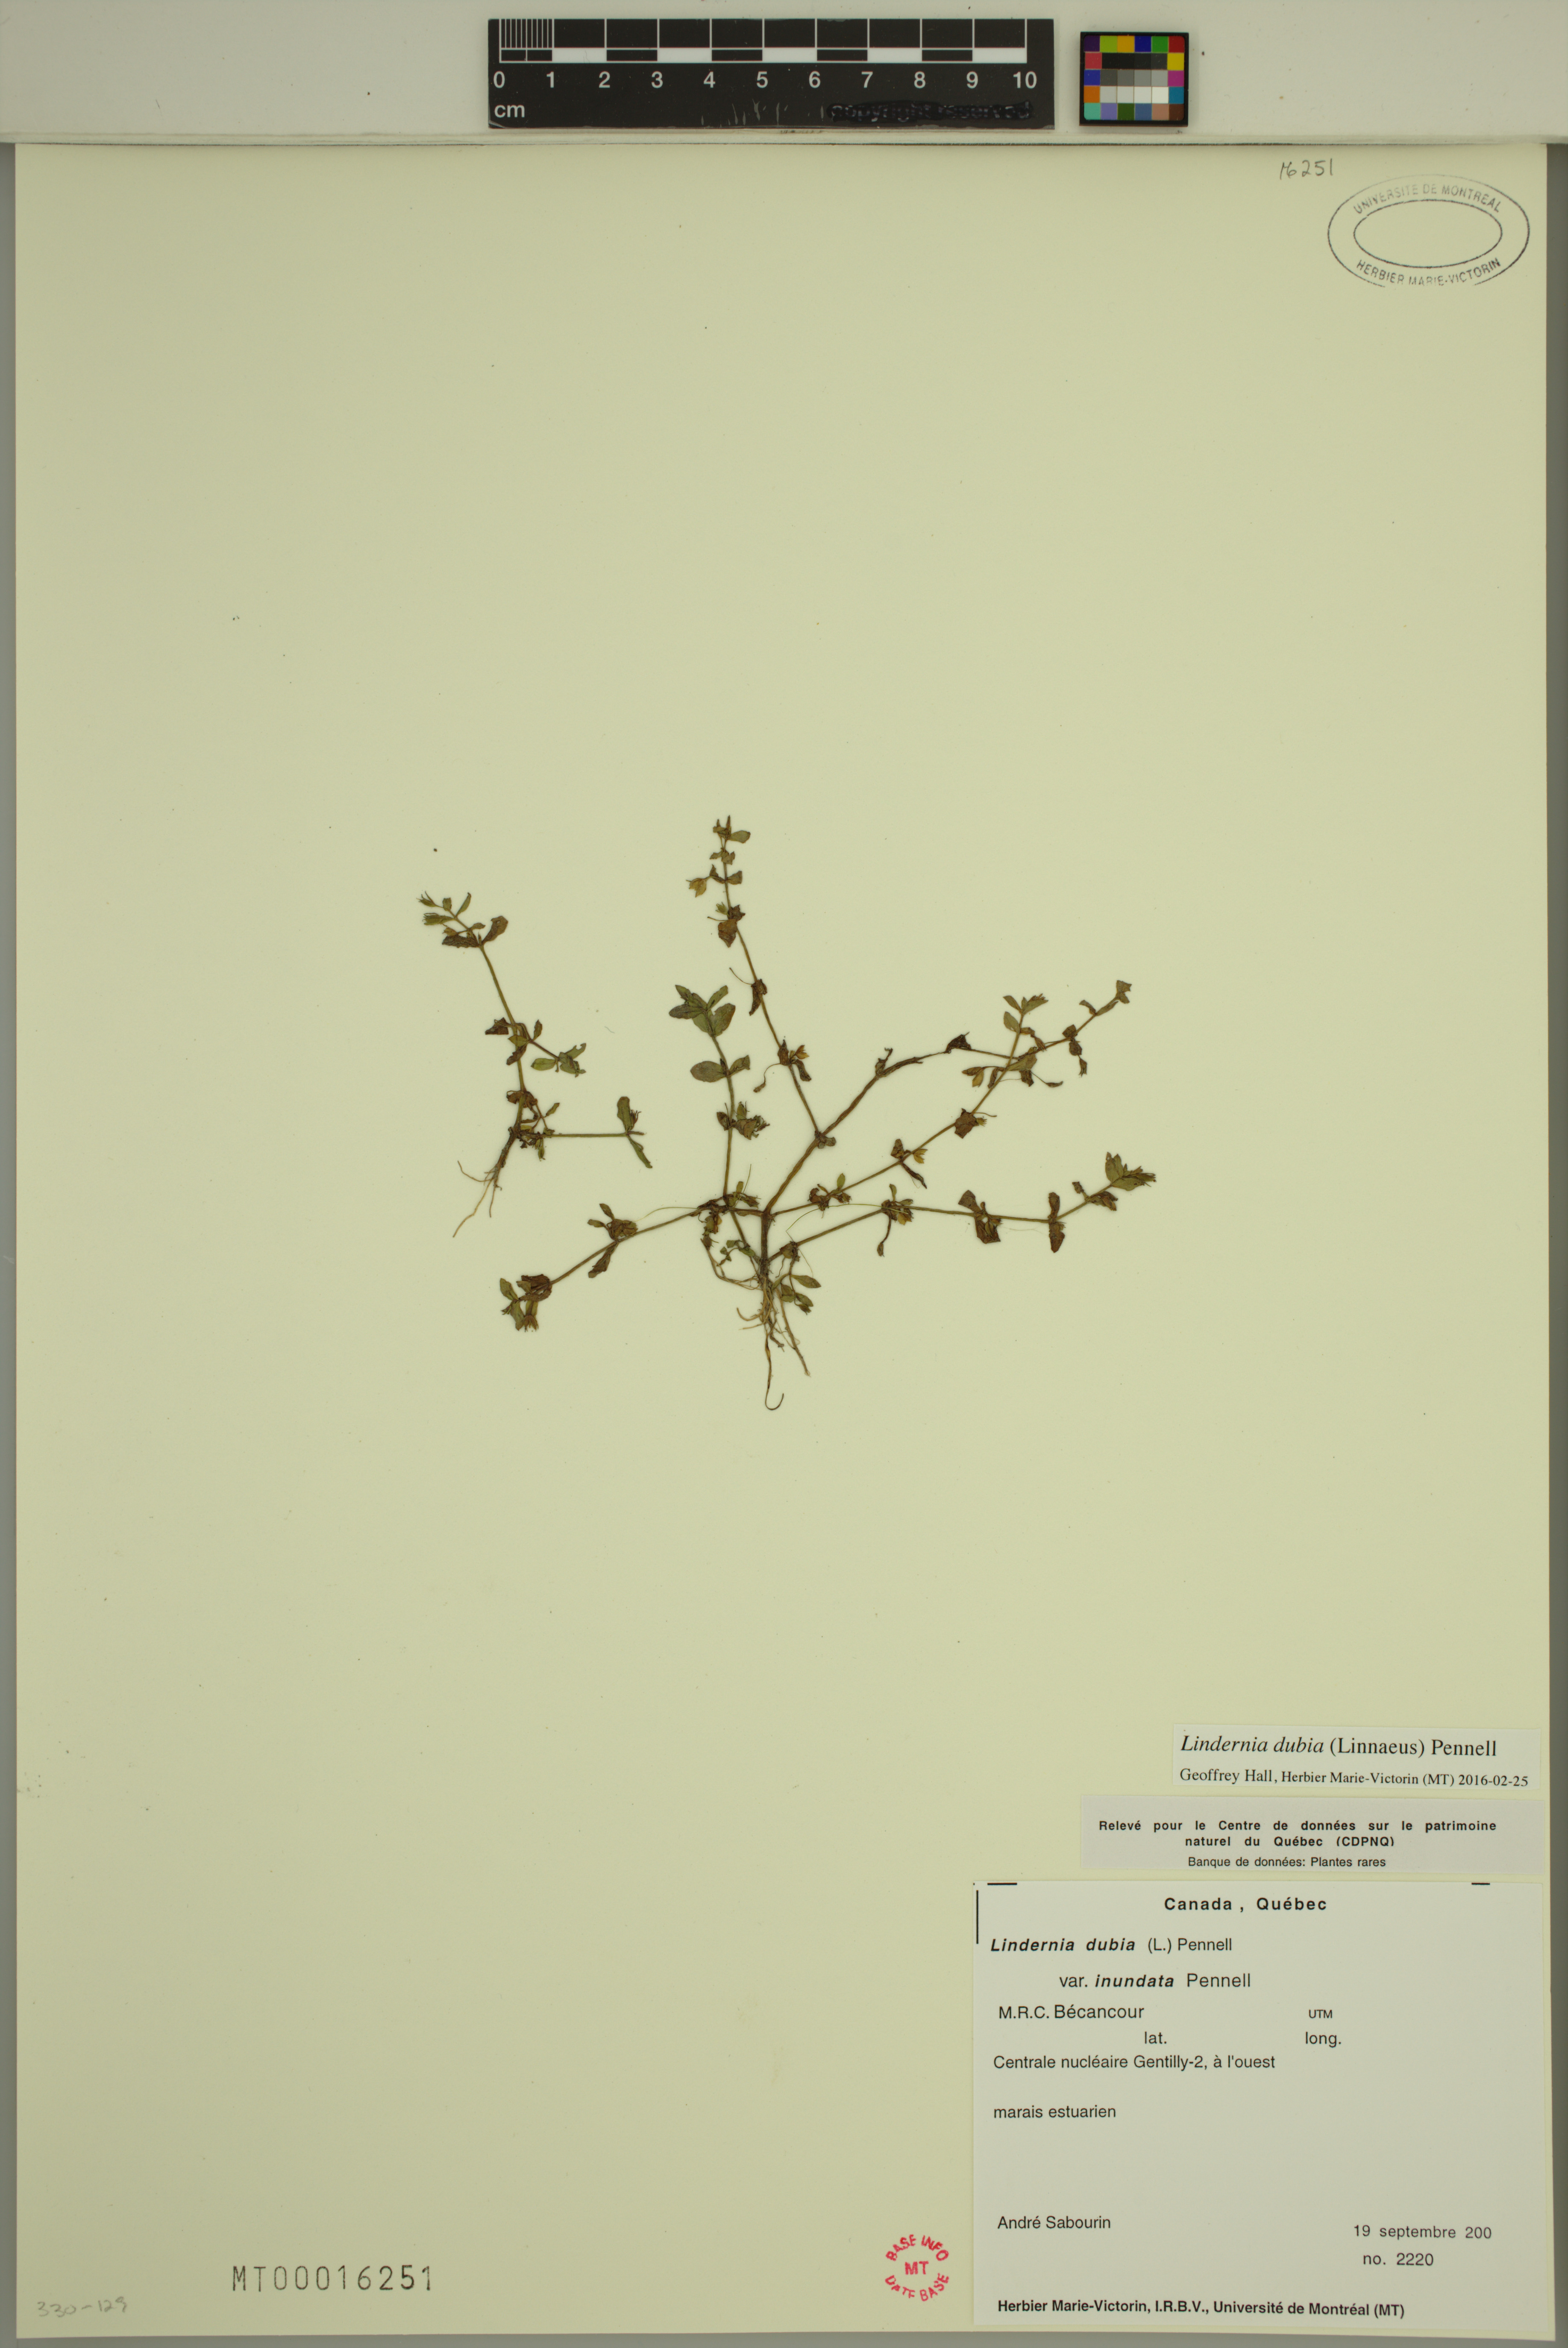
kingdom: Plantae
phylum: Tracheophyta
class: Magnoliopsida
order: Lamiales
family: Linderniaceae
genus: Lindernia
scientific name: Lindernia dubia
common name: Annual false pimpernel
